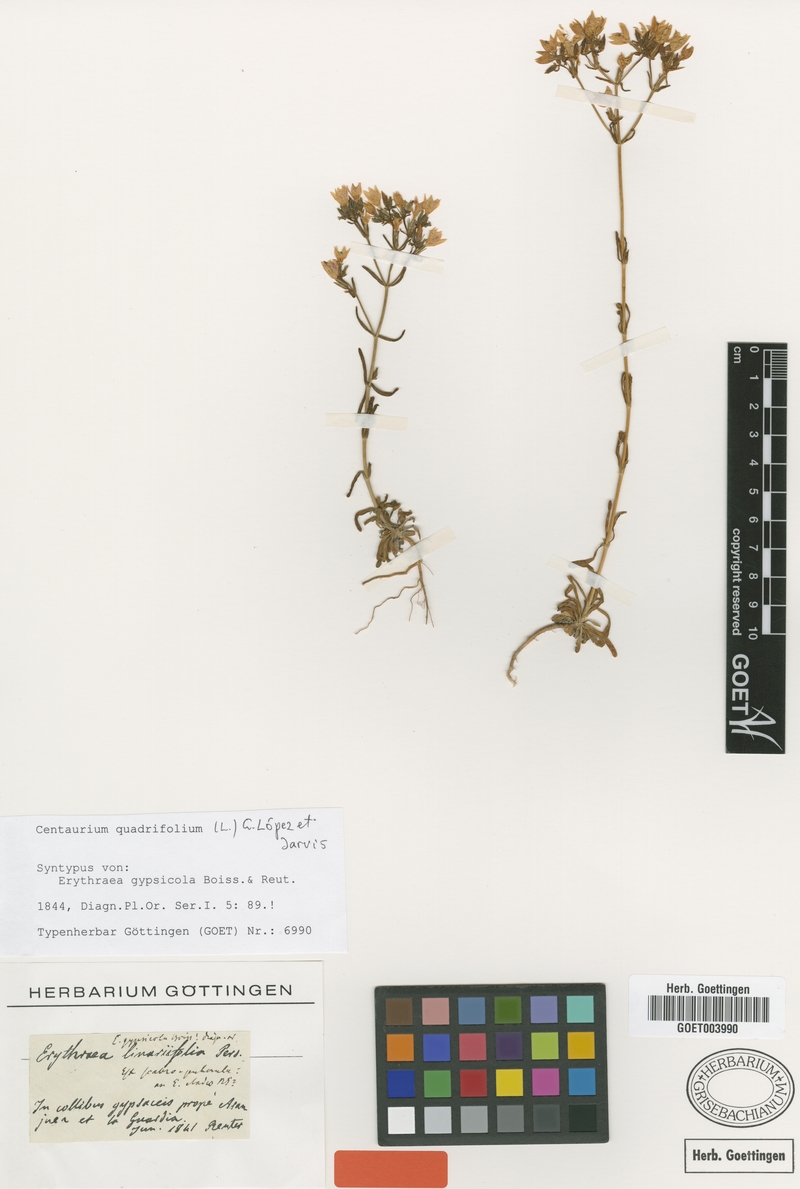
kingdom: Plantae
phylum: Tracheophyta
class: Magnoliopsida
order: Gentianales
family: Gentianaceae
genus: Centaurium
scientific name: Centaurium quadrifolium
